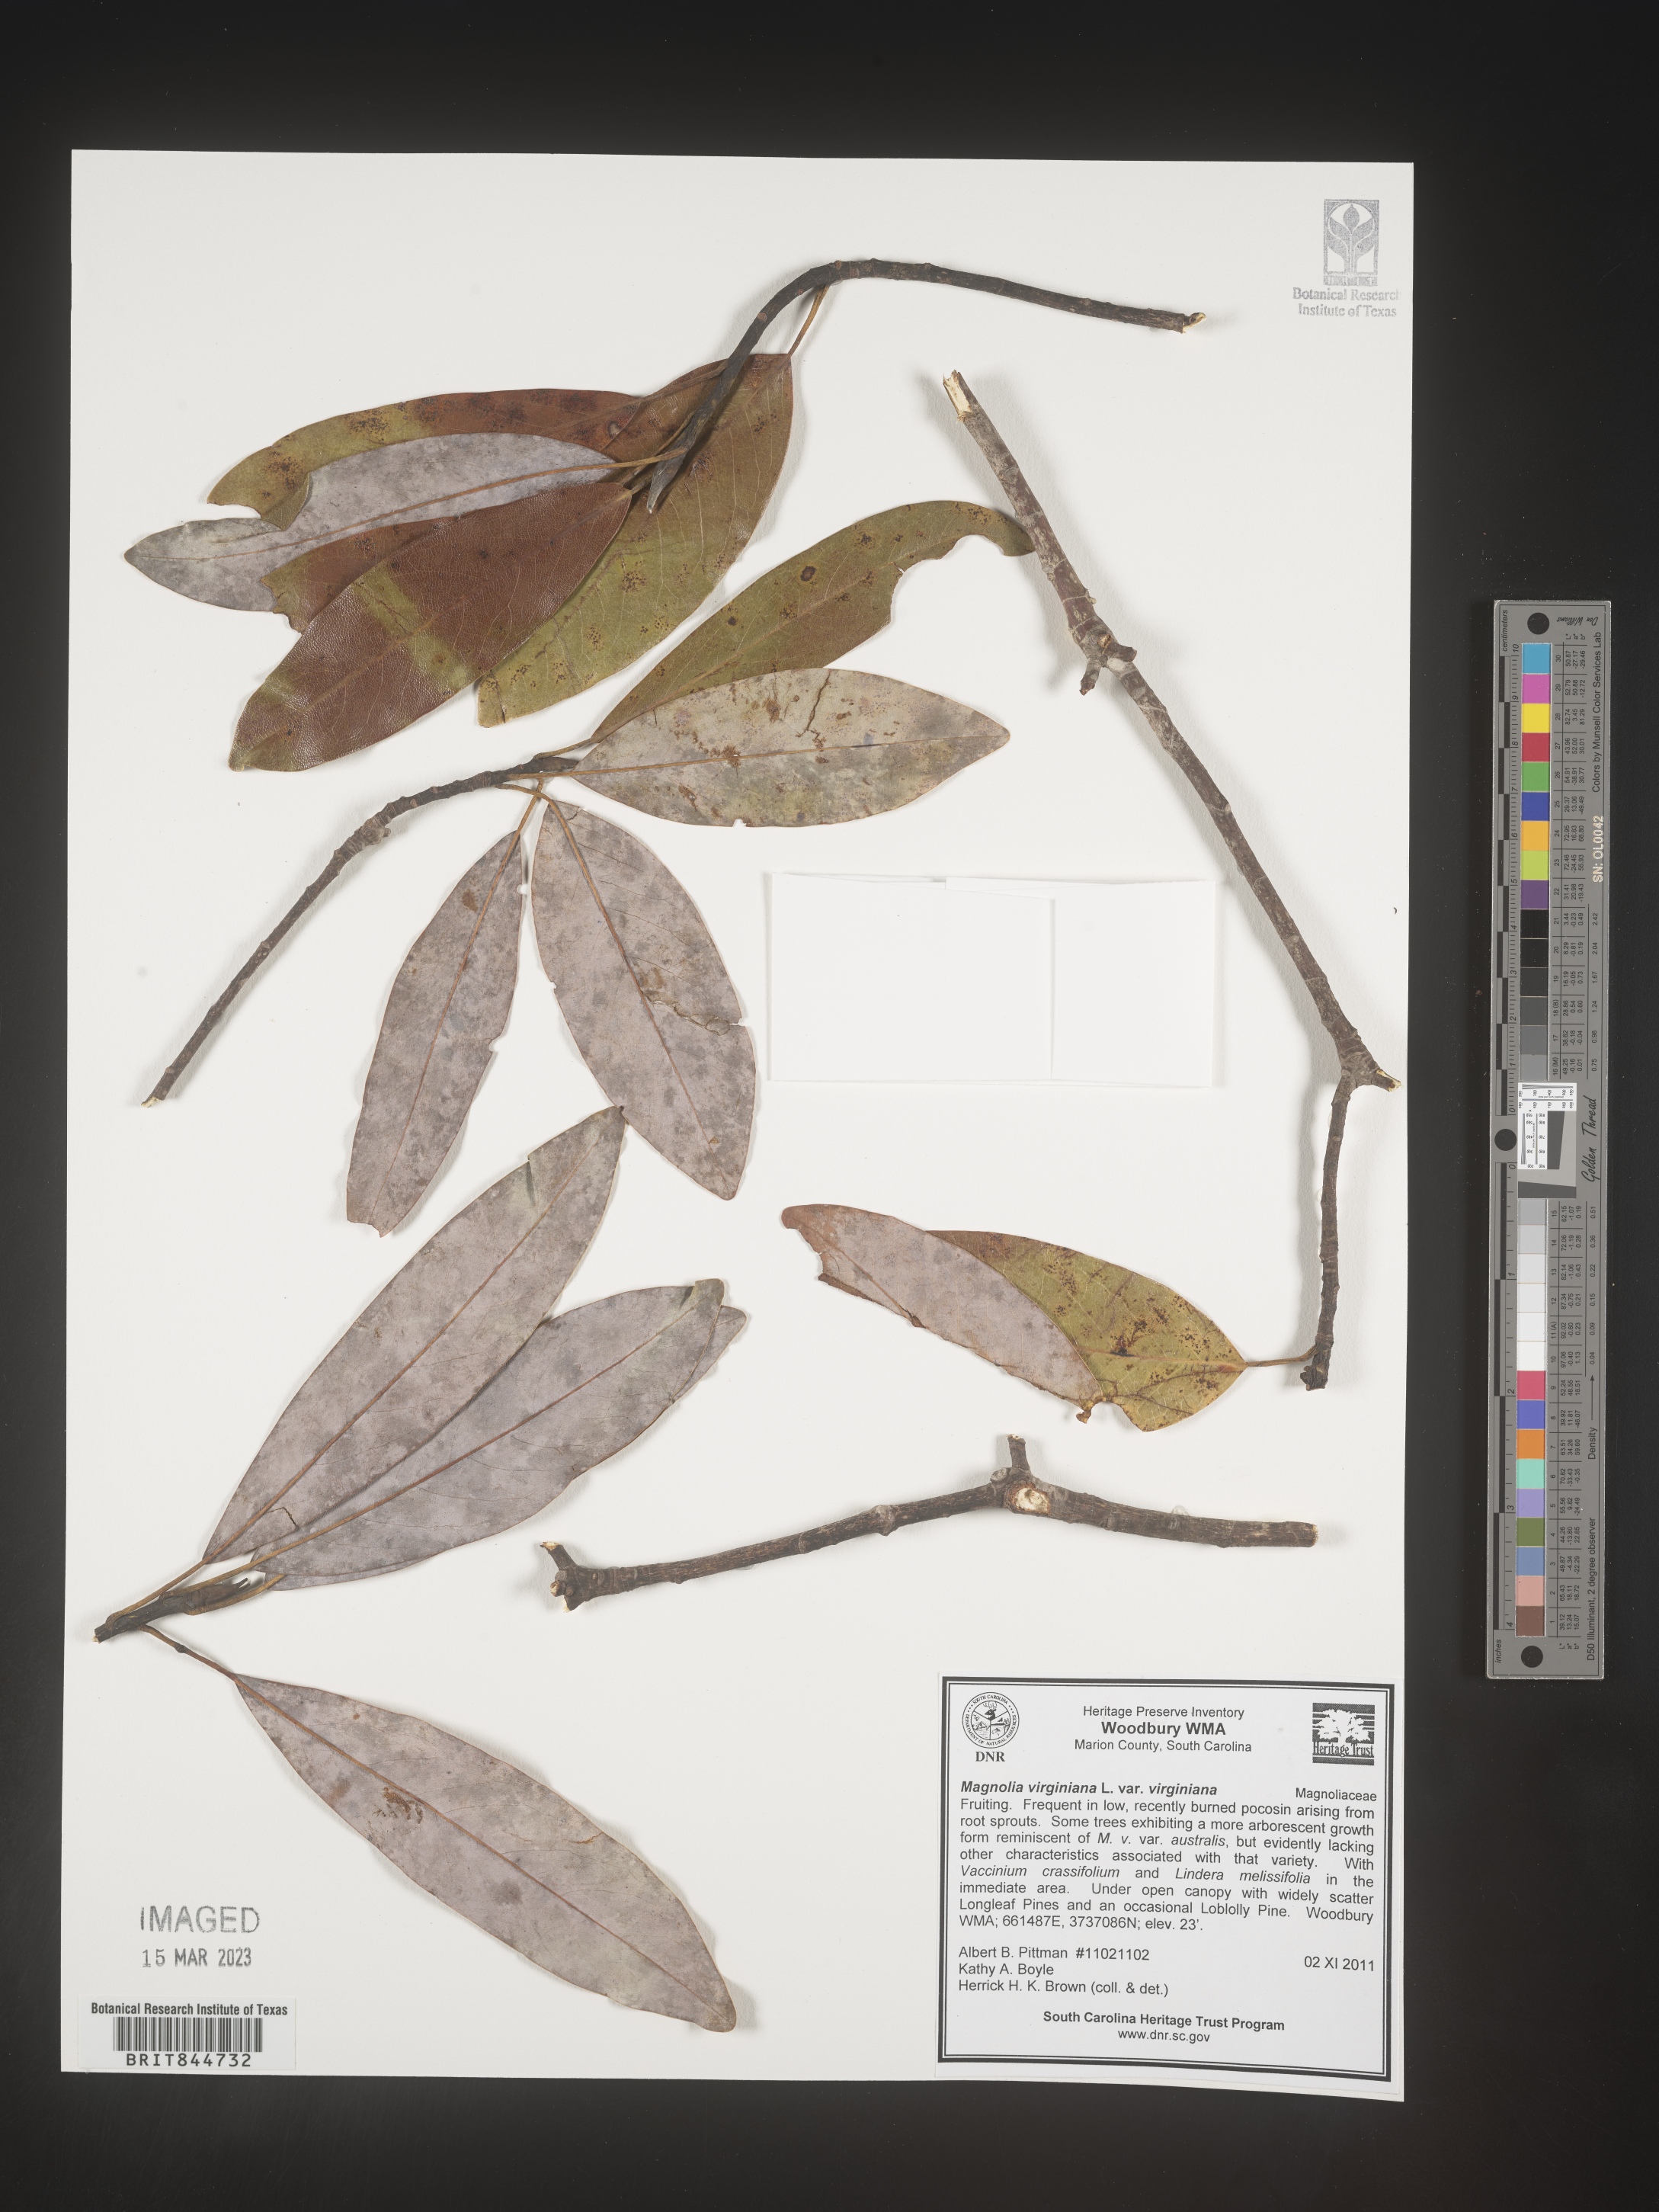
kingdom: Plantae
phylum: Tracheophyta
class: Magnoliopsida
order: Magnoliales
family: Magnoliaceae
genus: Magnolia
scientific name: Magnolia virginiana
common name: Swamp bay
